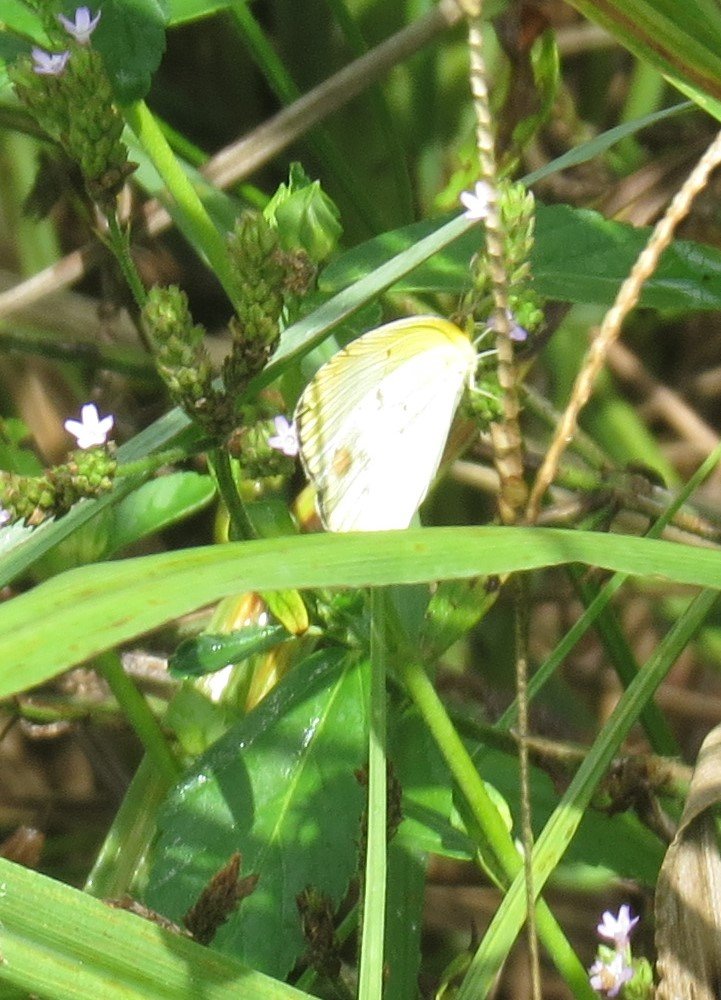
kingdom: Animalia
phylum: Arthropoda
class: Insecta
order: Lepidoptera
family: Pieridae
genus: Pyrisitia
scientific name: Pyrisitia lisa
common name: Little Yellow
